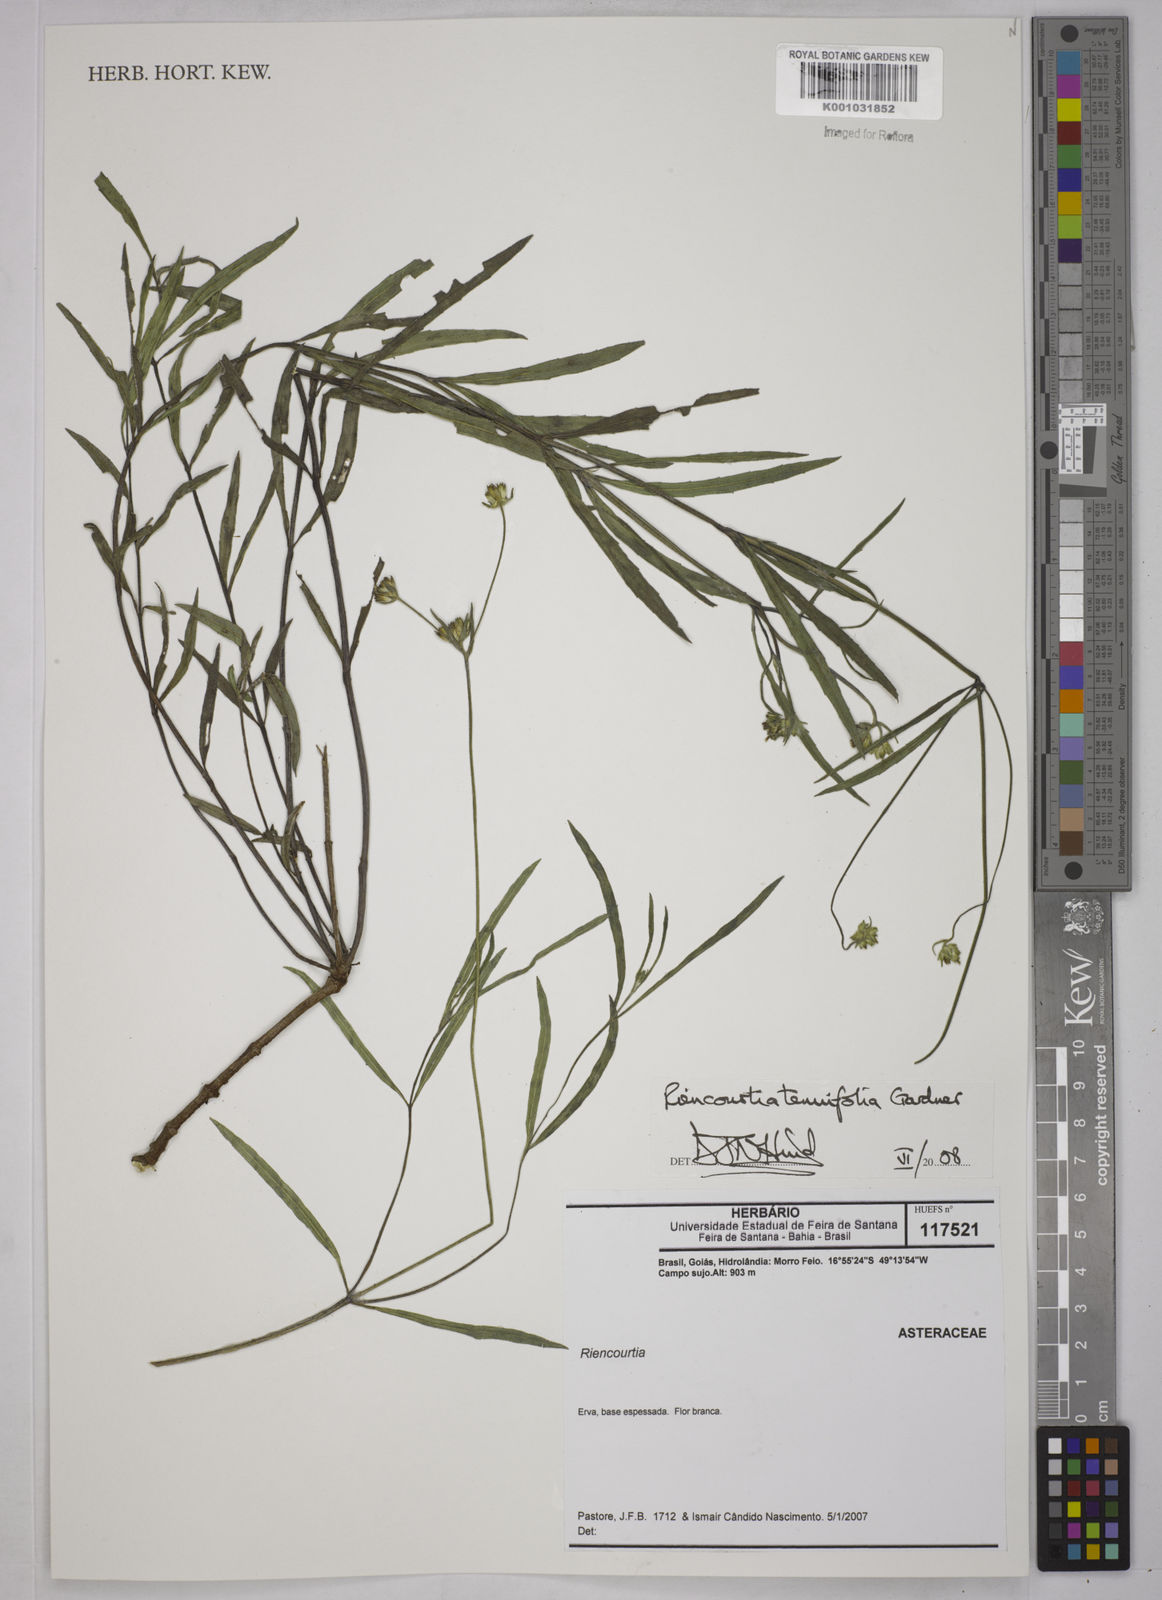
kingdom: Plantae
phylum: Tracheophyta
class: Magnoliopsida
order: Asterales
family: Asteraceae
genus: Riencourtia
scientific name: Riencourtia tenuifolia
